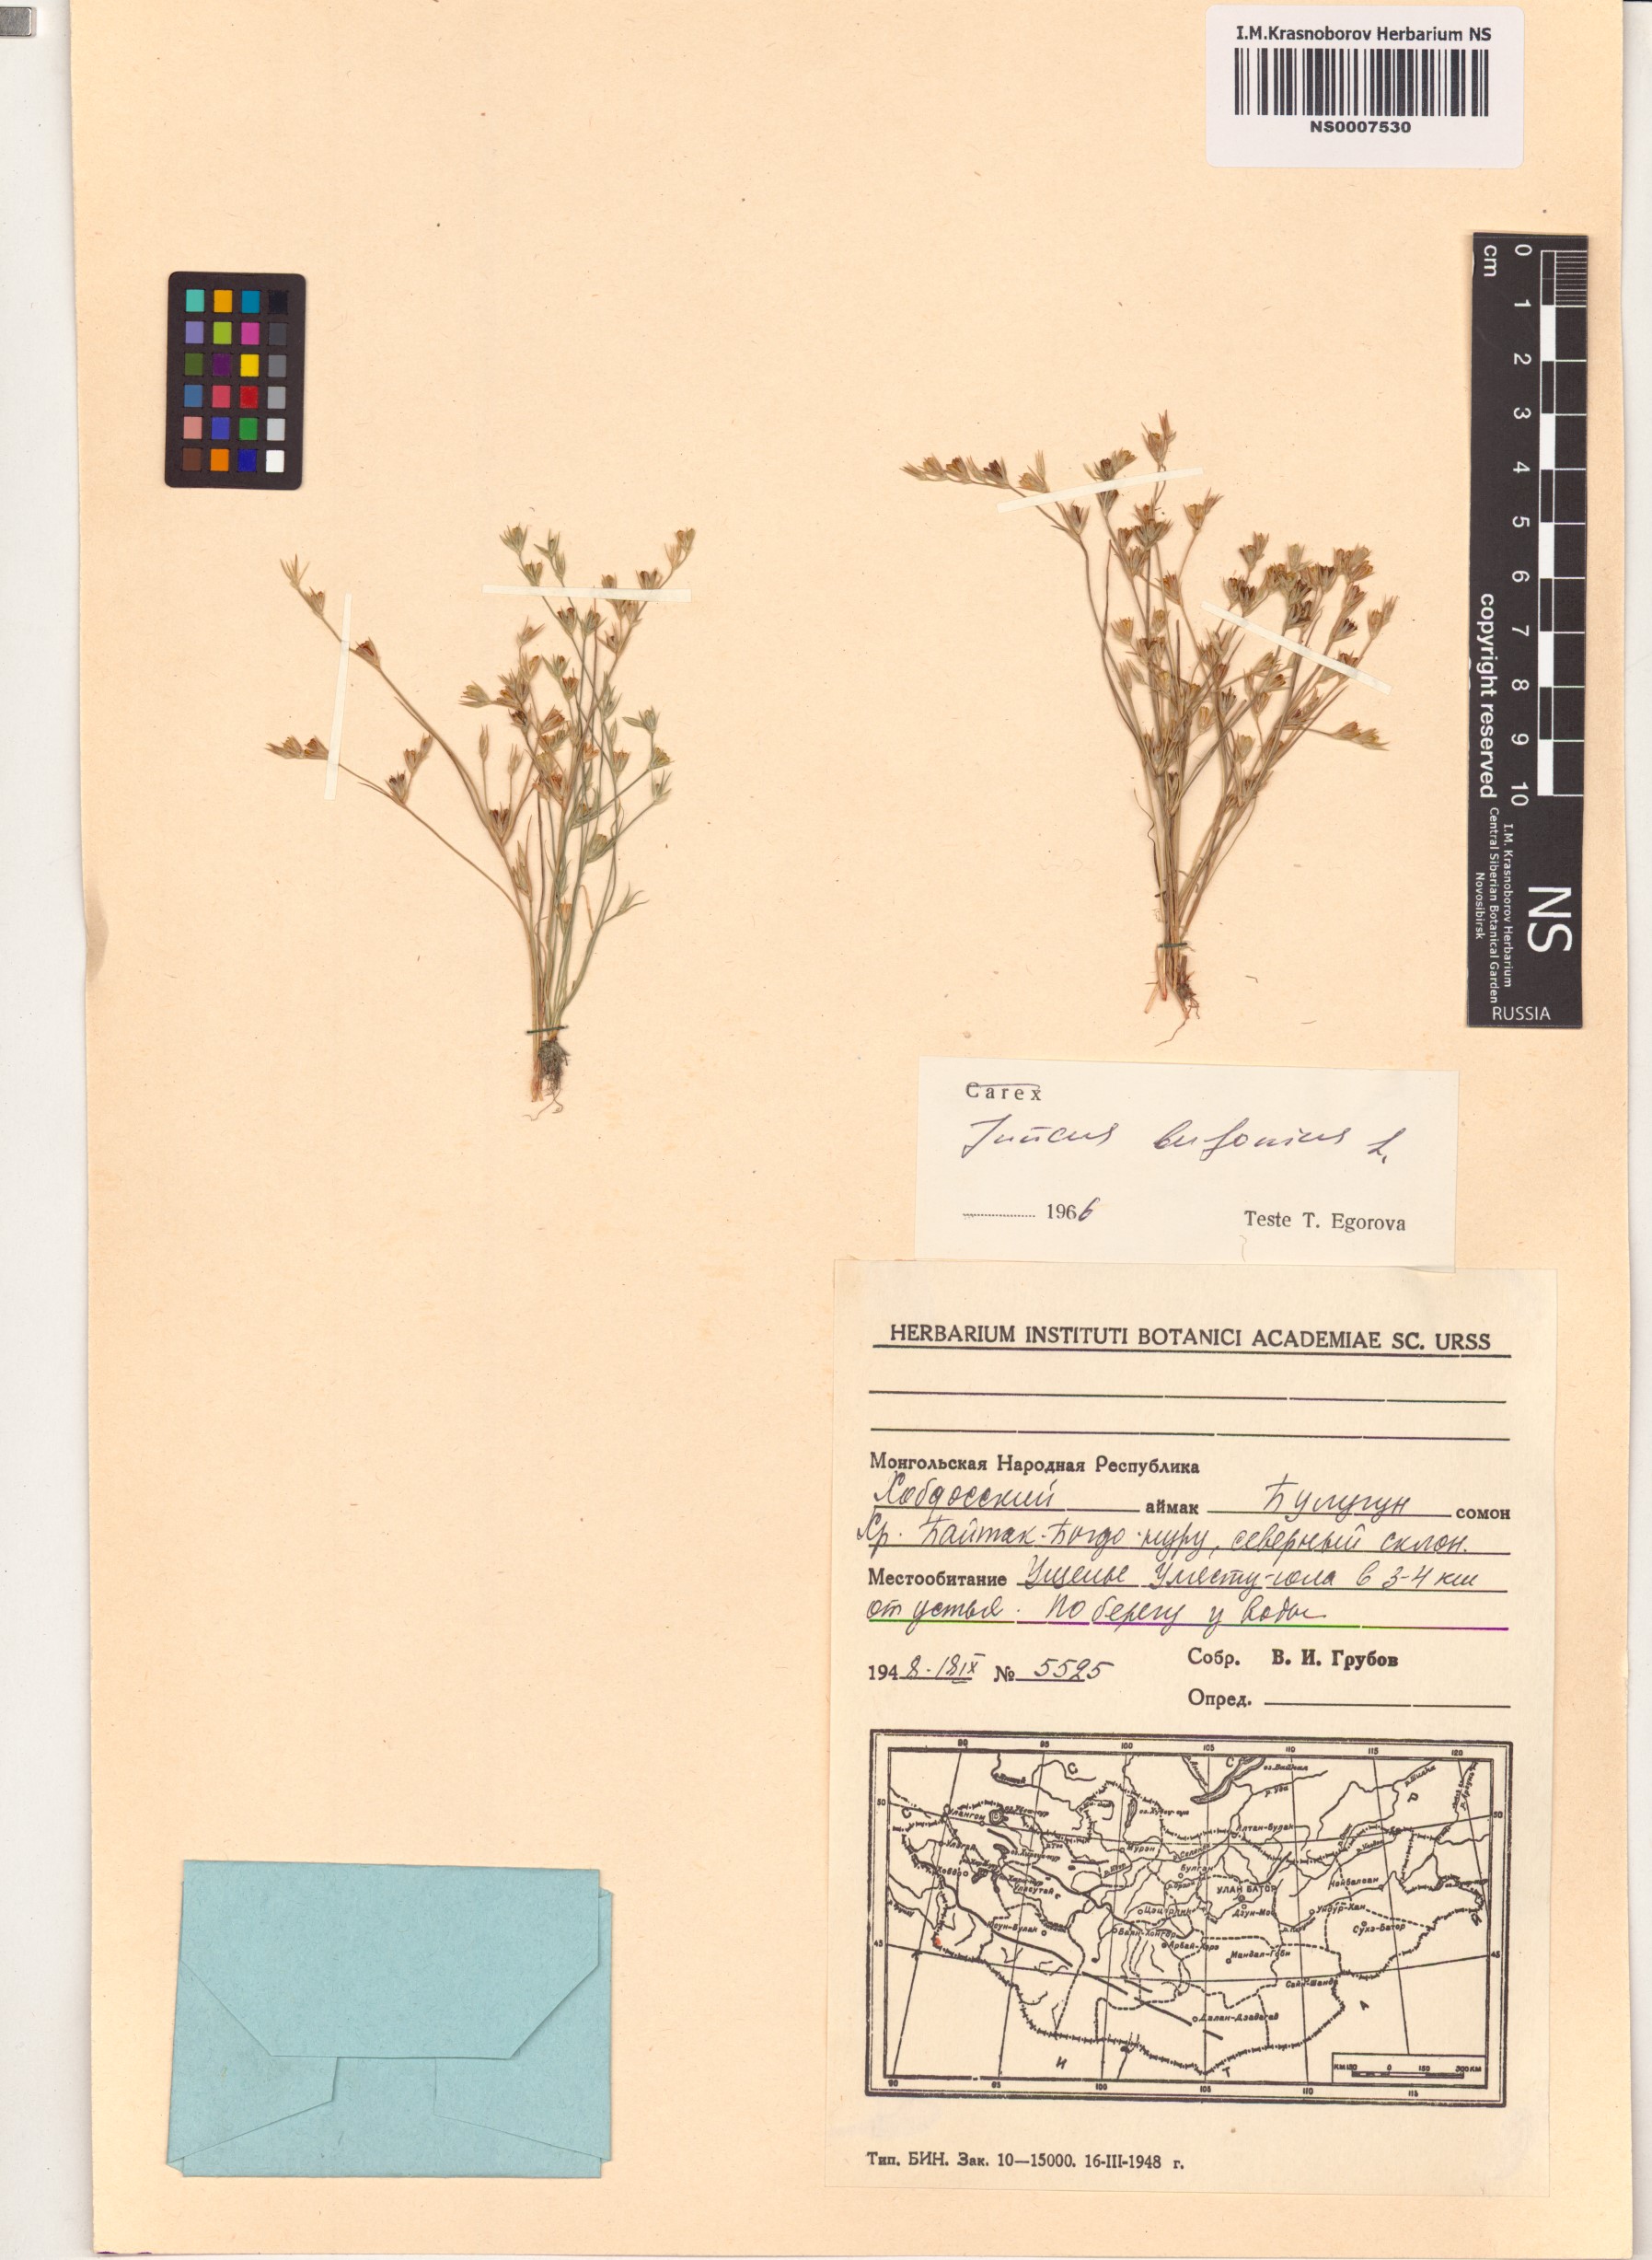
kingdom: Plantae
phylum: Tracheophyta
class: Liliopsida
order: Poales
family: Juncaceae
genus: Juncus
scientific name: Juncus bufonius
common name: Toad rush
